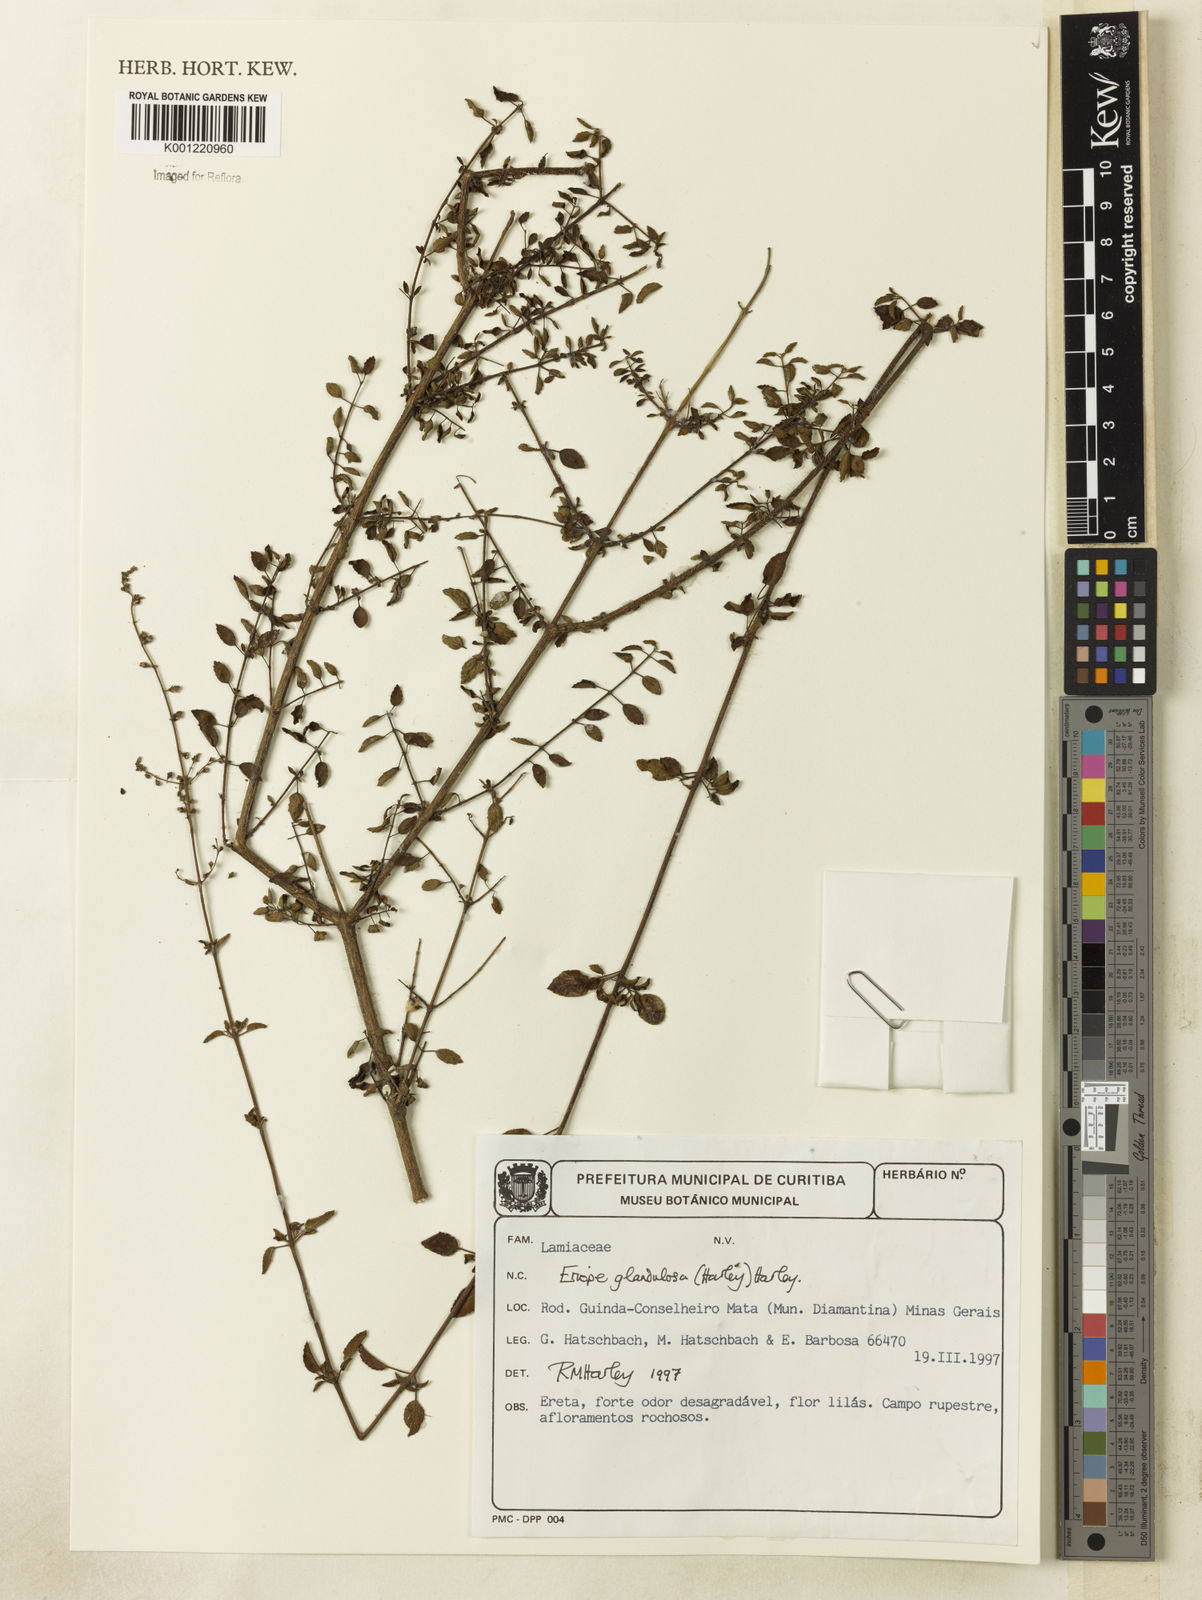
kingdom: Plantae
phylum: Tracheophyta
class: Magnoliopsida
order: Lamiales
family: Lamiaceae
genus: Eriope
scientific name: Eriope glandulosa
